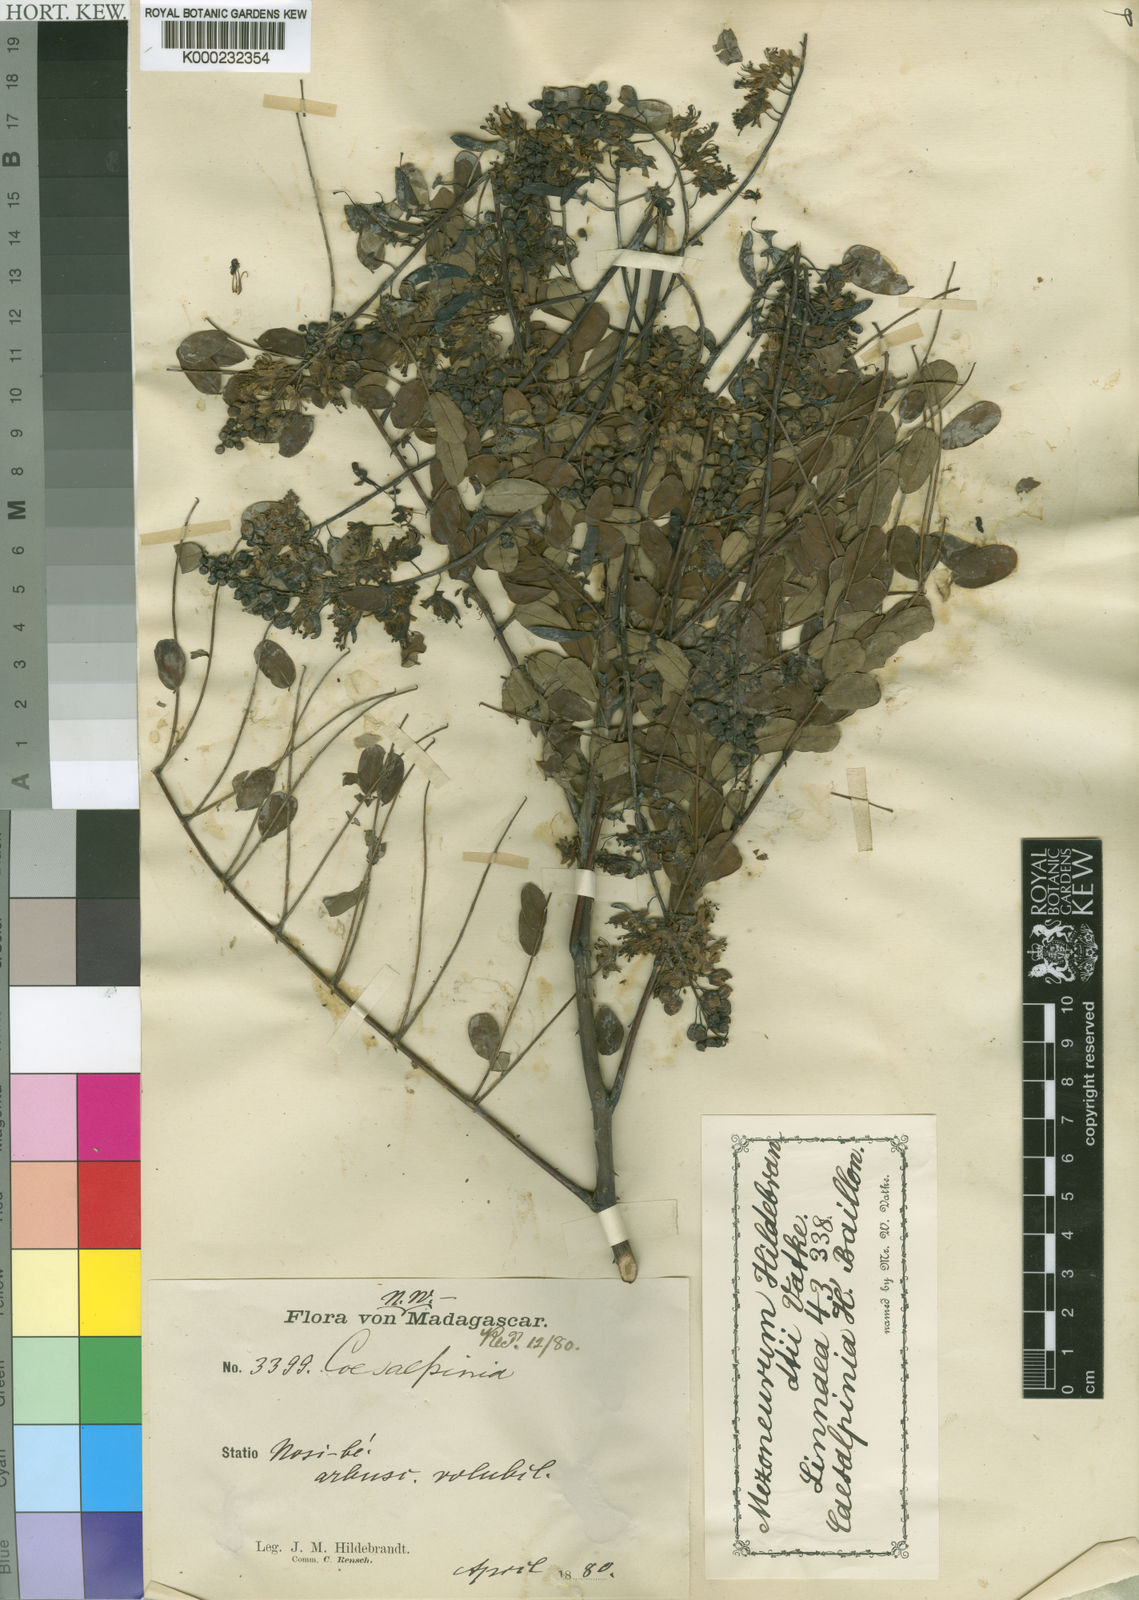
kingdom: Plantae
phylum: Tracheophyta
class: Magnoliopsida
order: Fabales
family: Fabaceae
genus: Mezoneuron
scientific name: Mezoneuron hildebrandtii
